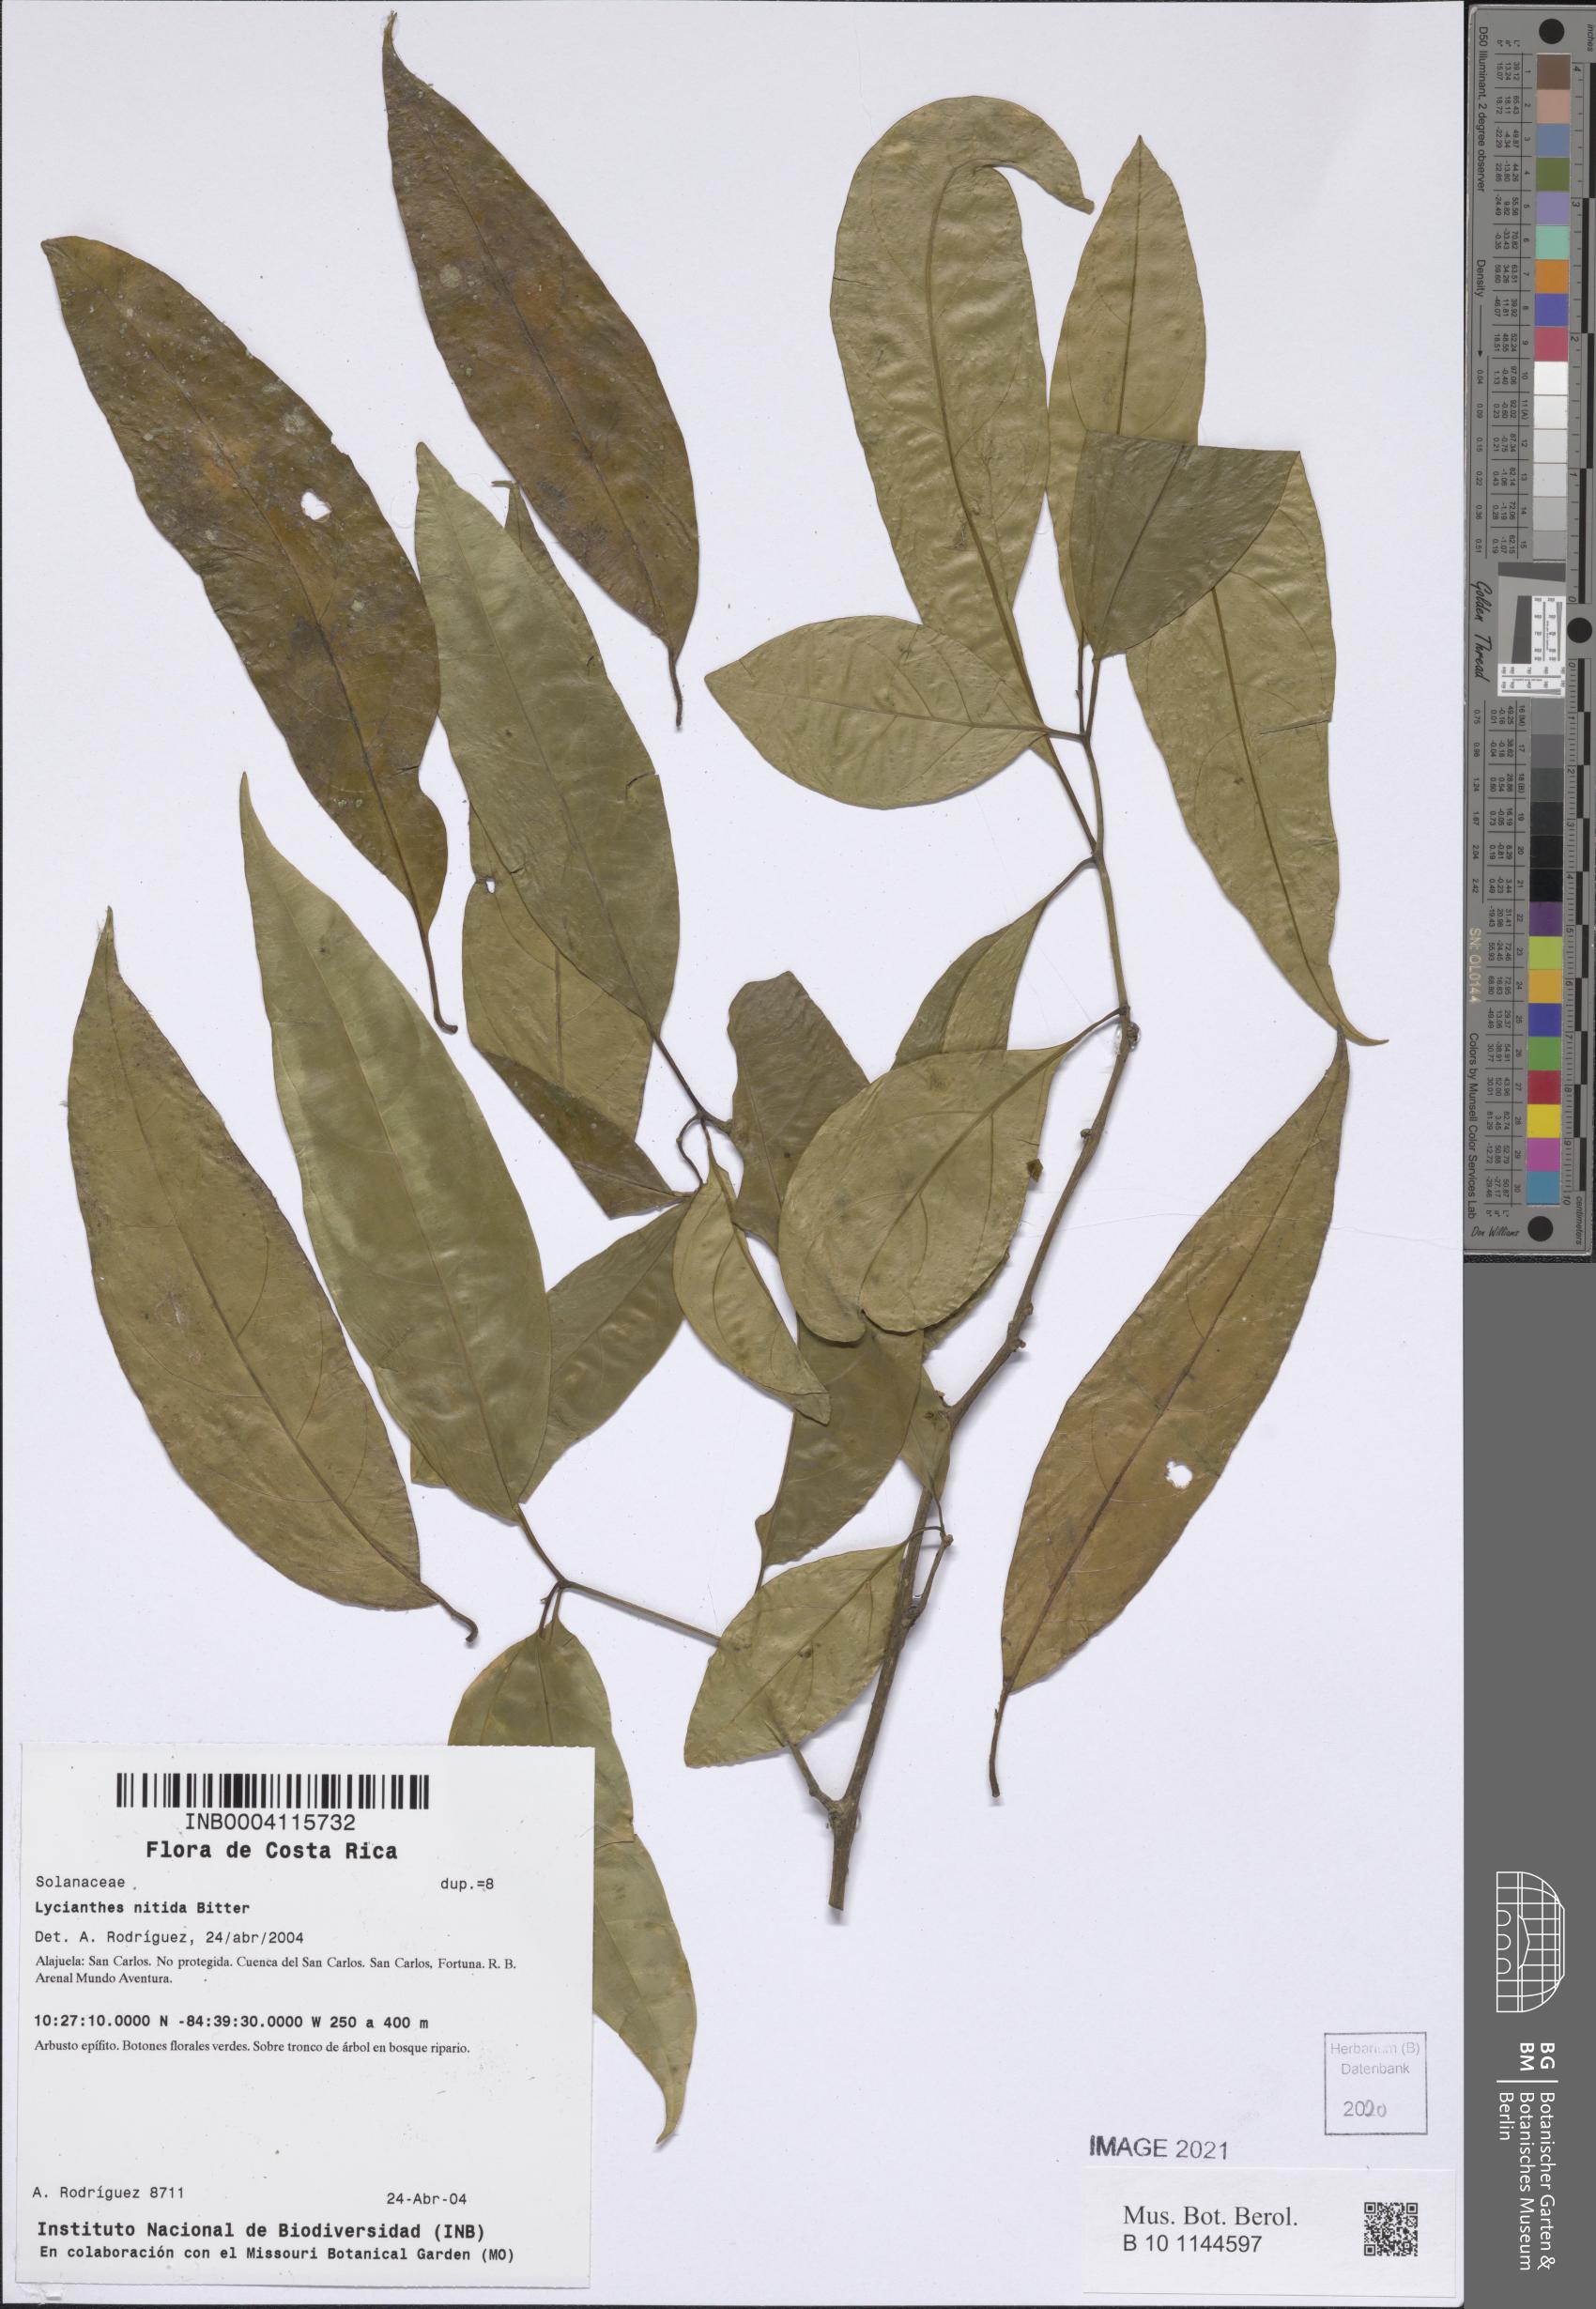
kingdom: Plantae
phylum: Tracheophyta
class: Magnoliopsida
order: Solanales
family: Solanaceae
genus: Lycianthes
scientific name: Lycianthes nitida
